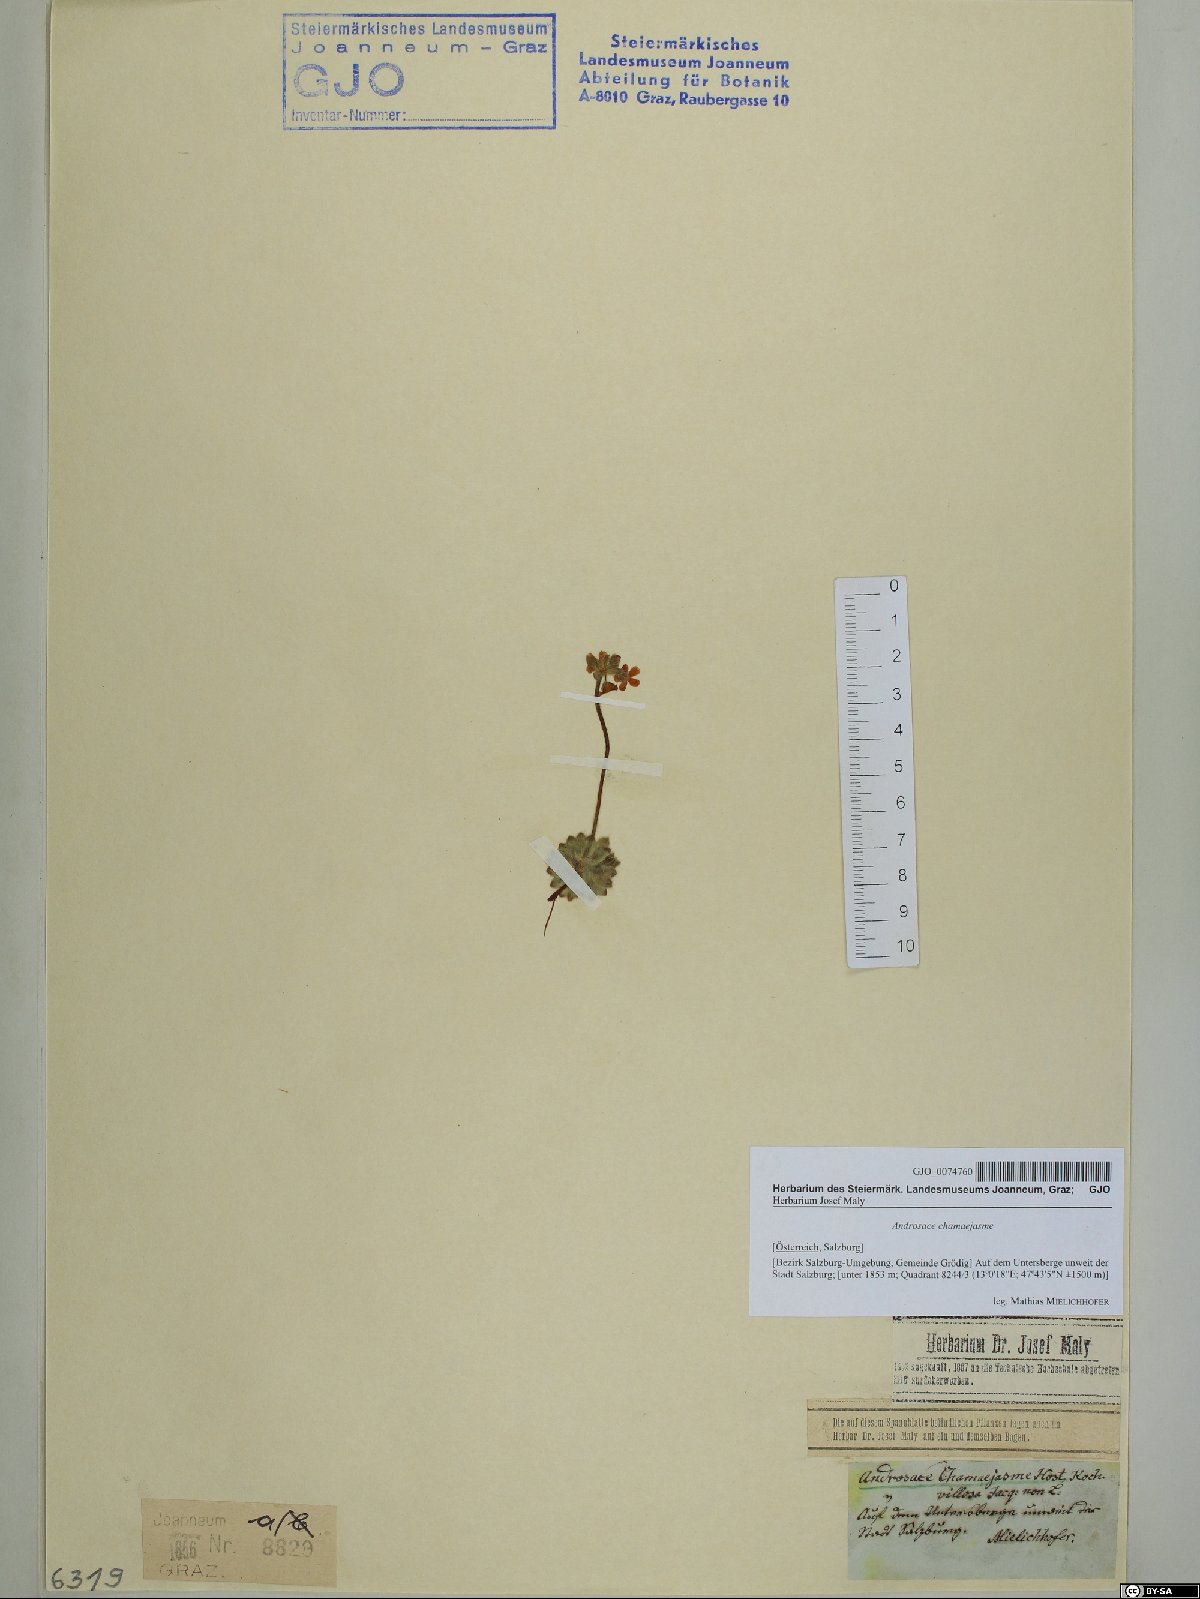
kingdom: Plantae
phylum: Tracheophyta
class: Magnoliopsida
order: Ericales
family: Primulaceae
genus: Androsace
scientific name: Androsace chamaejasme
